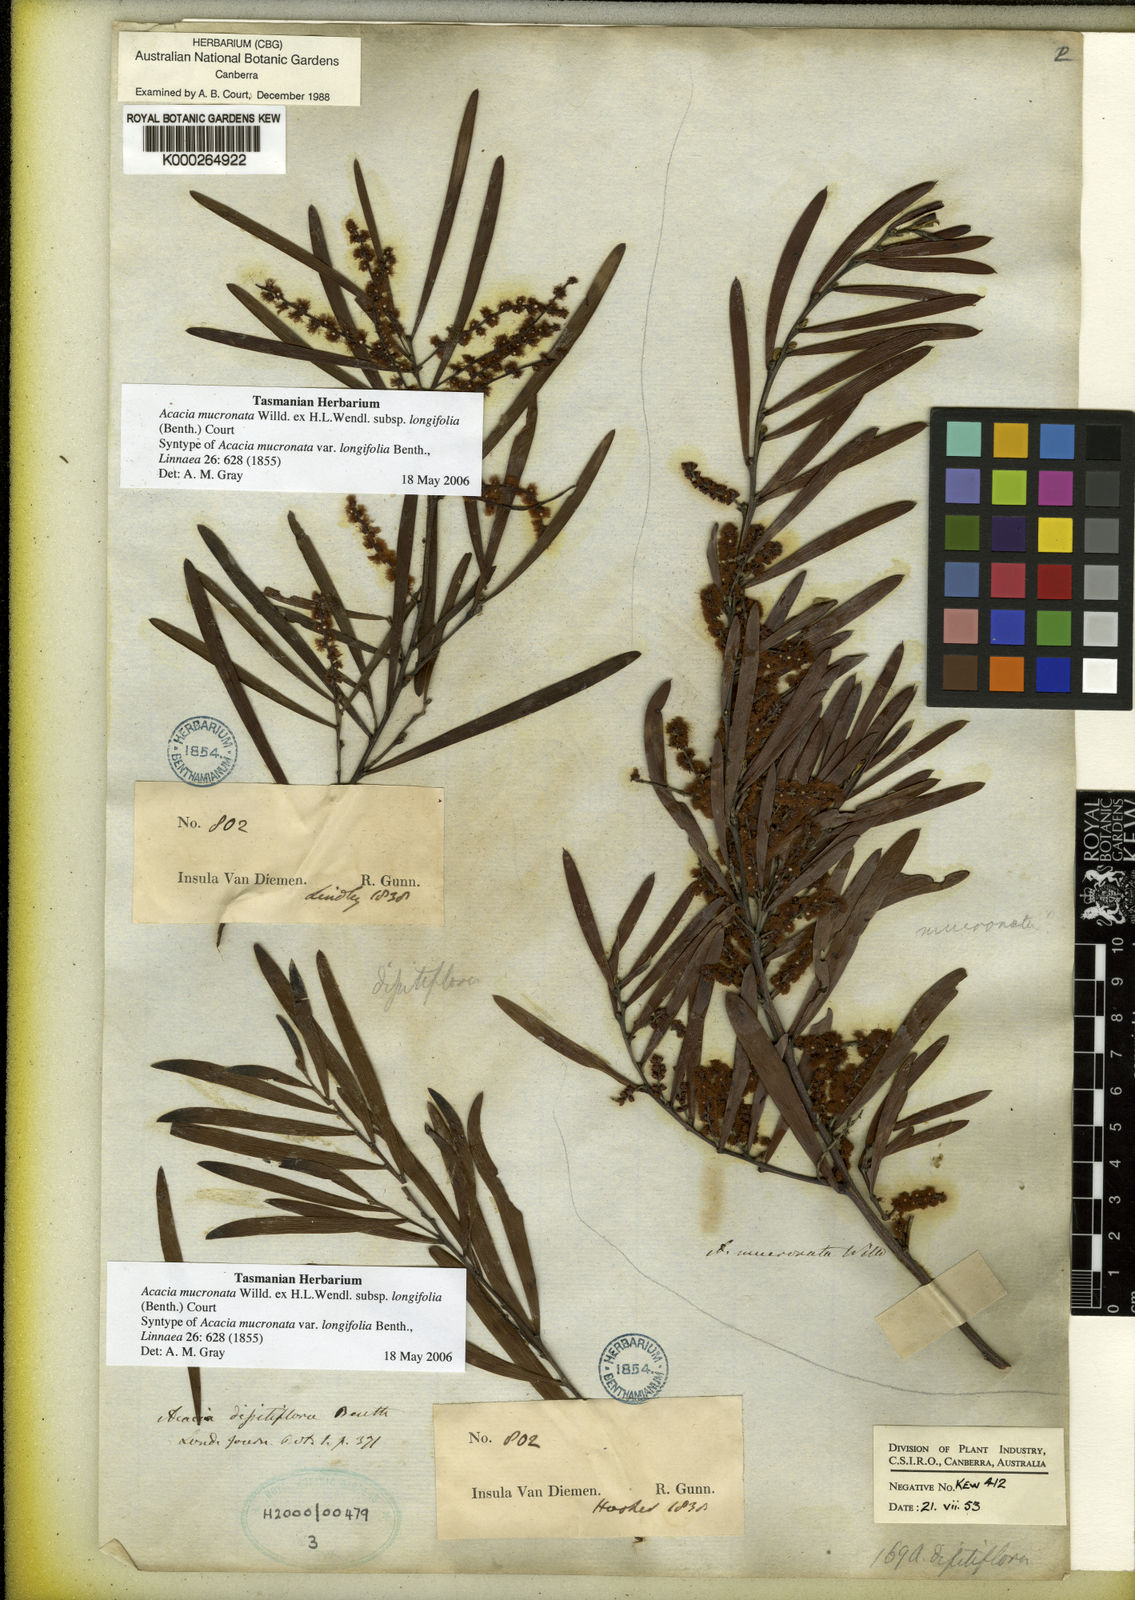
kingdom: Plantae
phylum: Tracheophyta
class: Magnoliopsida
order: Fabales
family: Fabaceae
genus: Acacia
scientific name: Acacia
